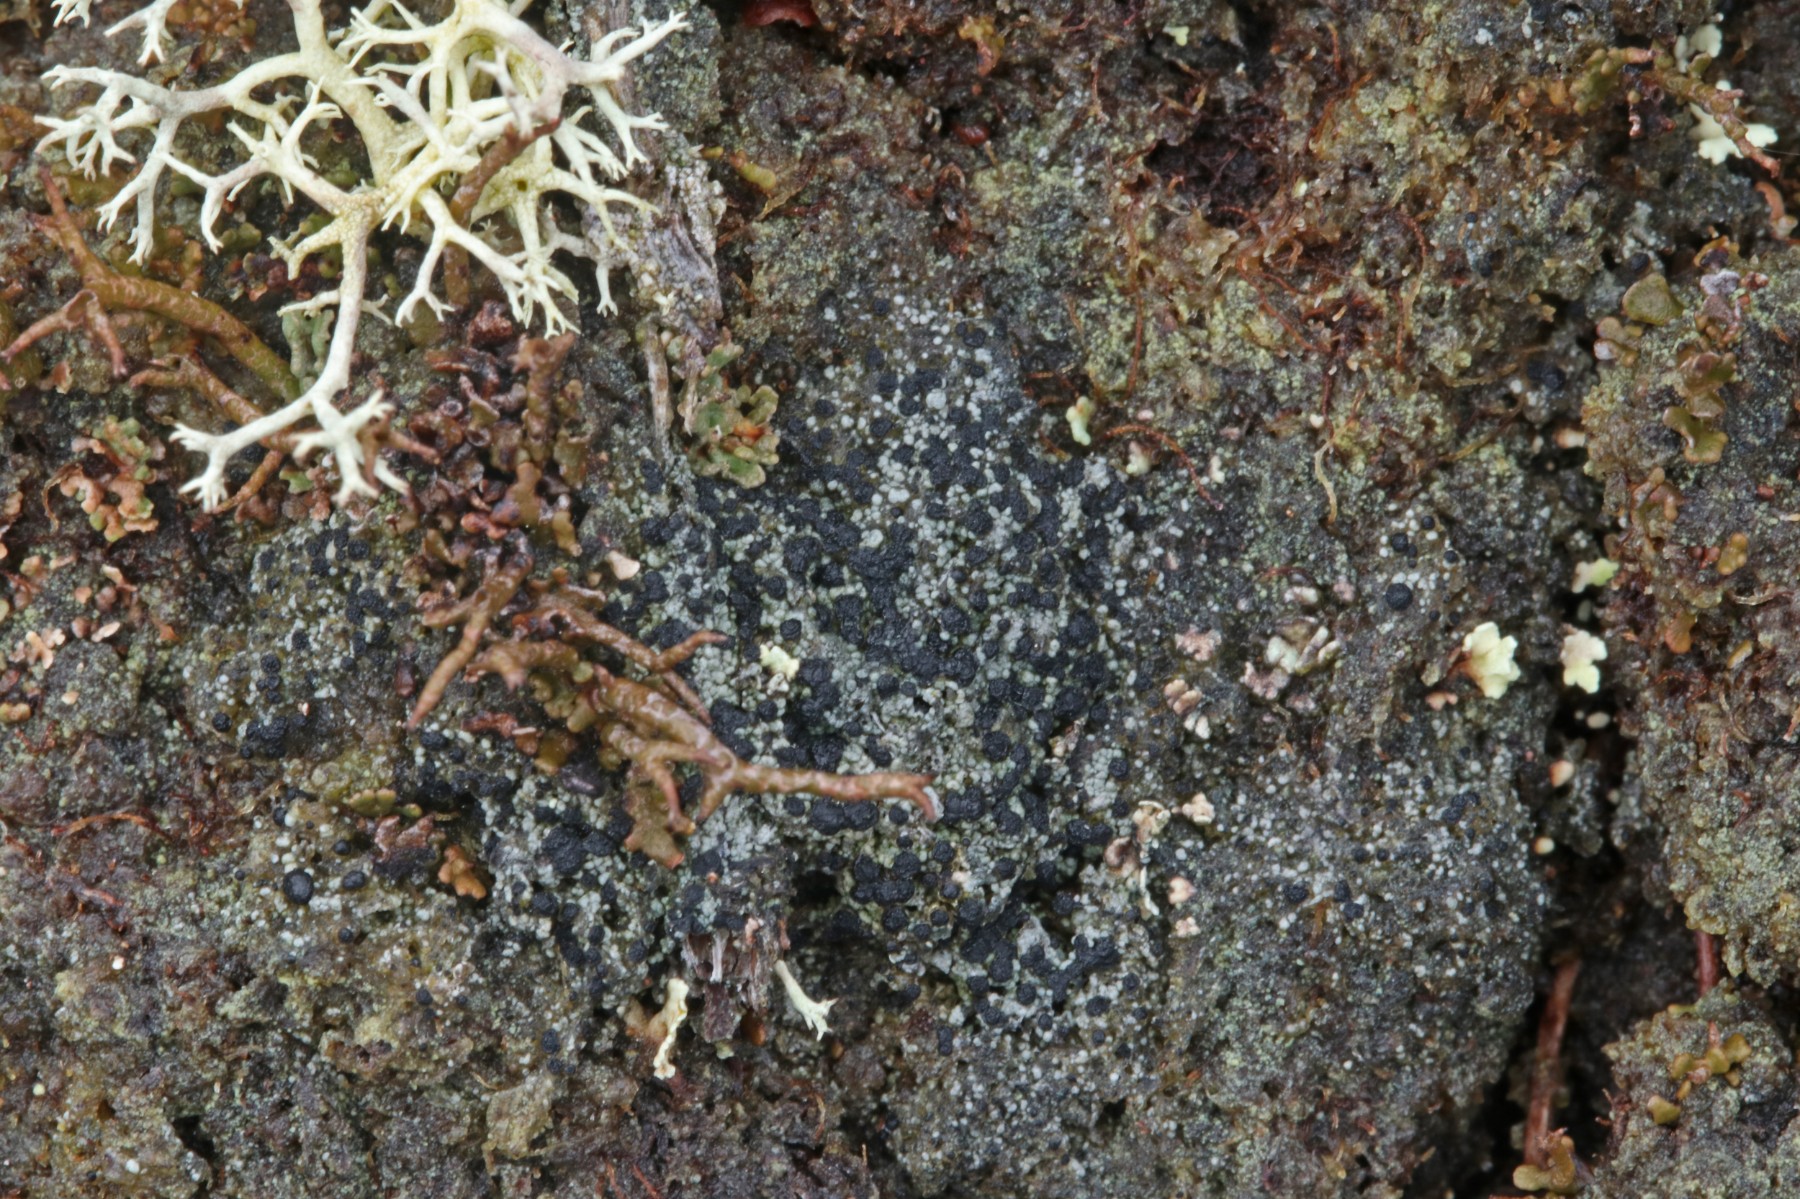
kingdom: Fungi
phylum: Ascomycota
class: Lecanoromycetes
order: Lecanorales
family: Byssolomataceae
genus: Micarea
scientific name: Micarea lignaria
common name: tørve-knaplav
